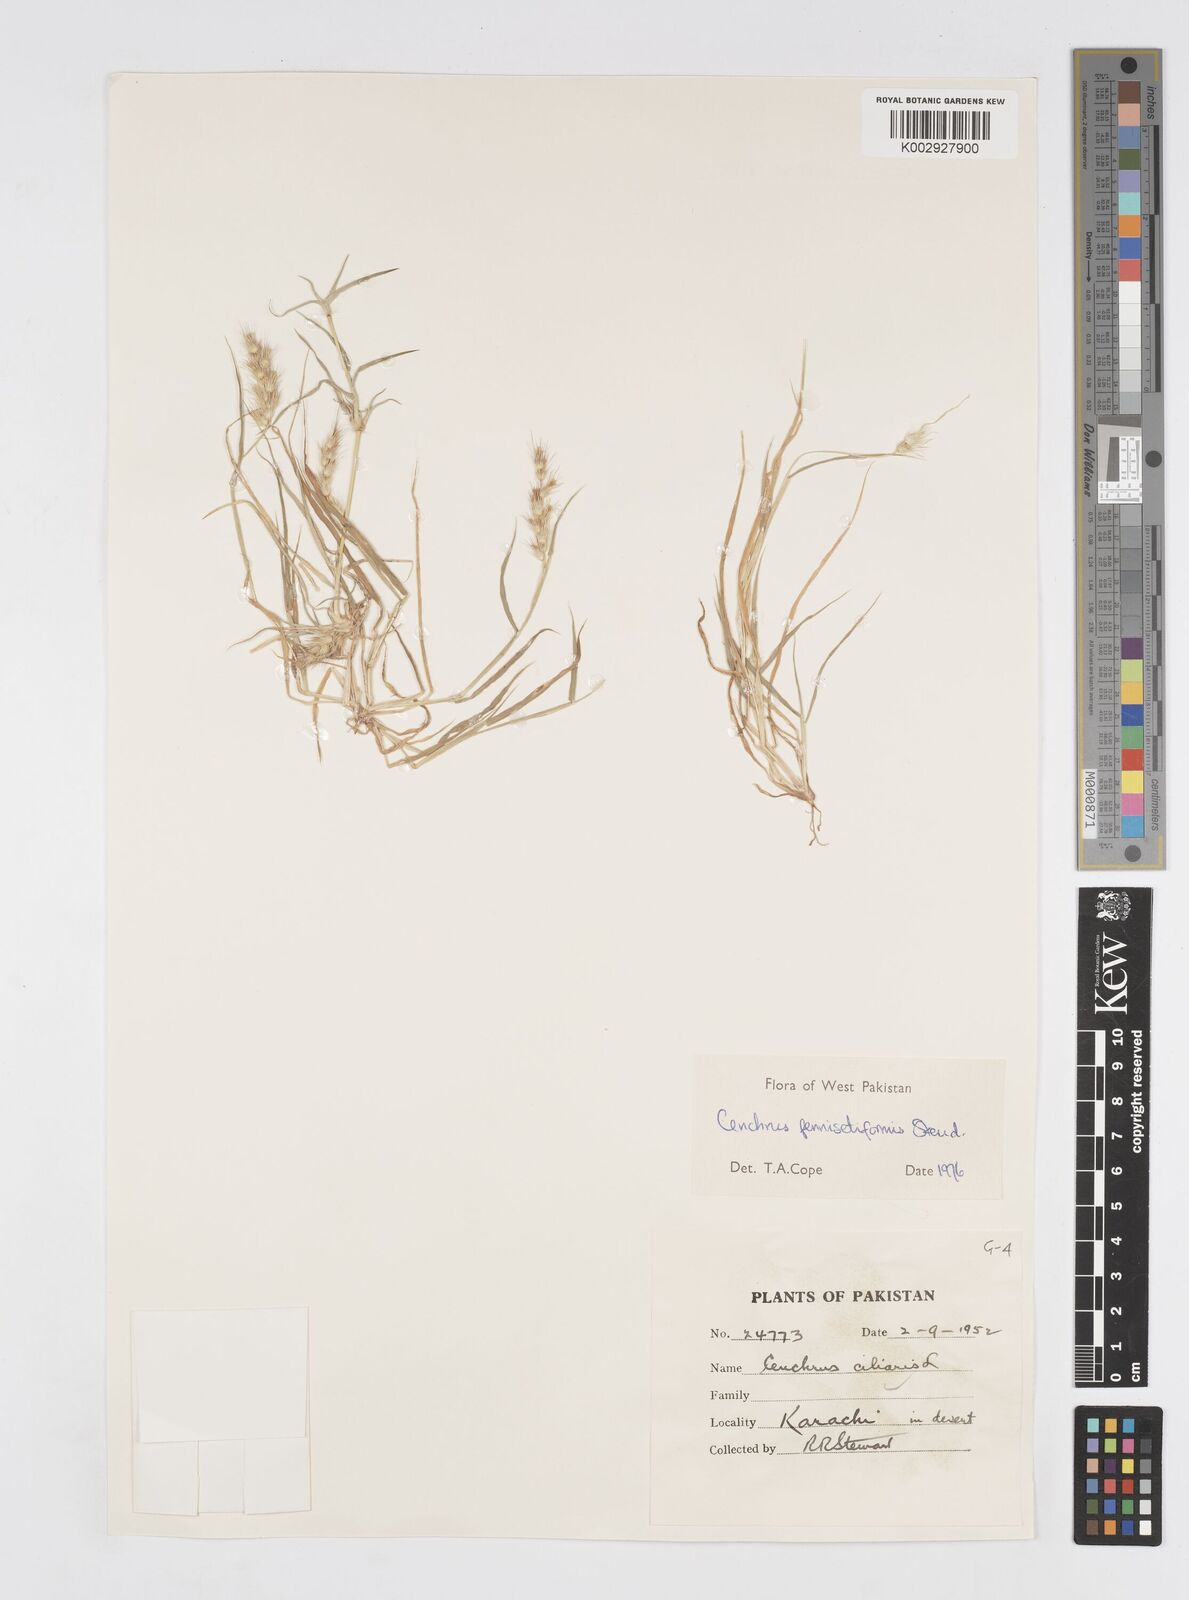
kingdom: Plantae
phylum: Tracheophyta
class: Liliopsida
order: Poales
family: Poaceae
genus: Cenchrus
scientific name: Cenchrus pennisetiformis
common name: Cloncurry
